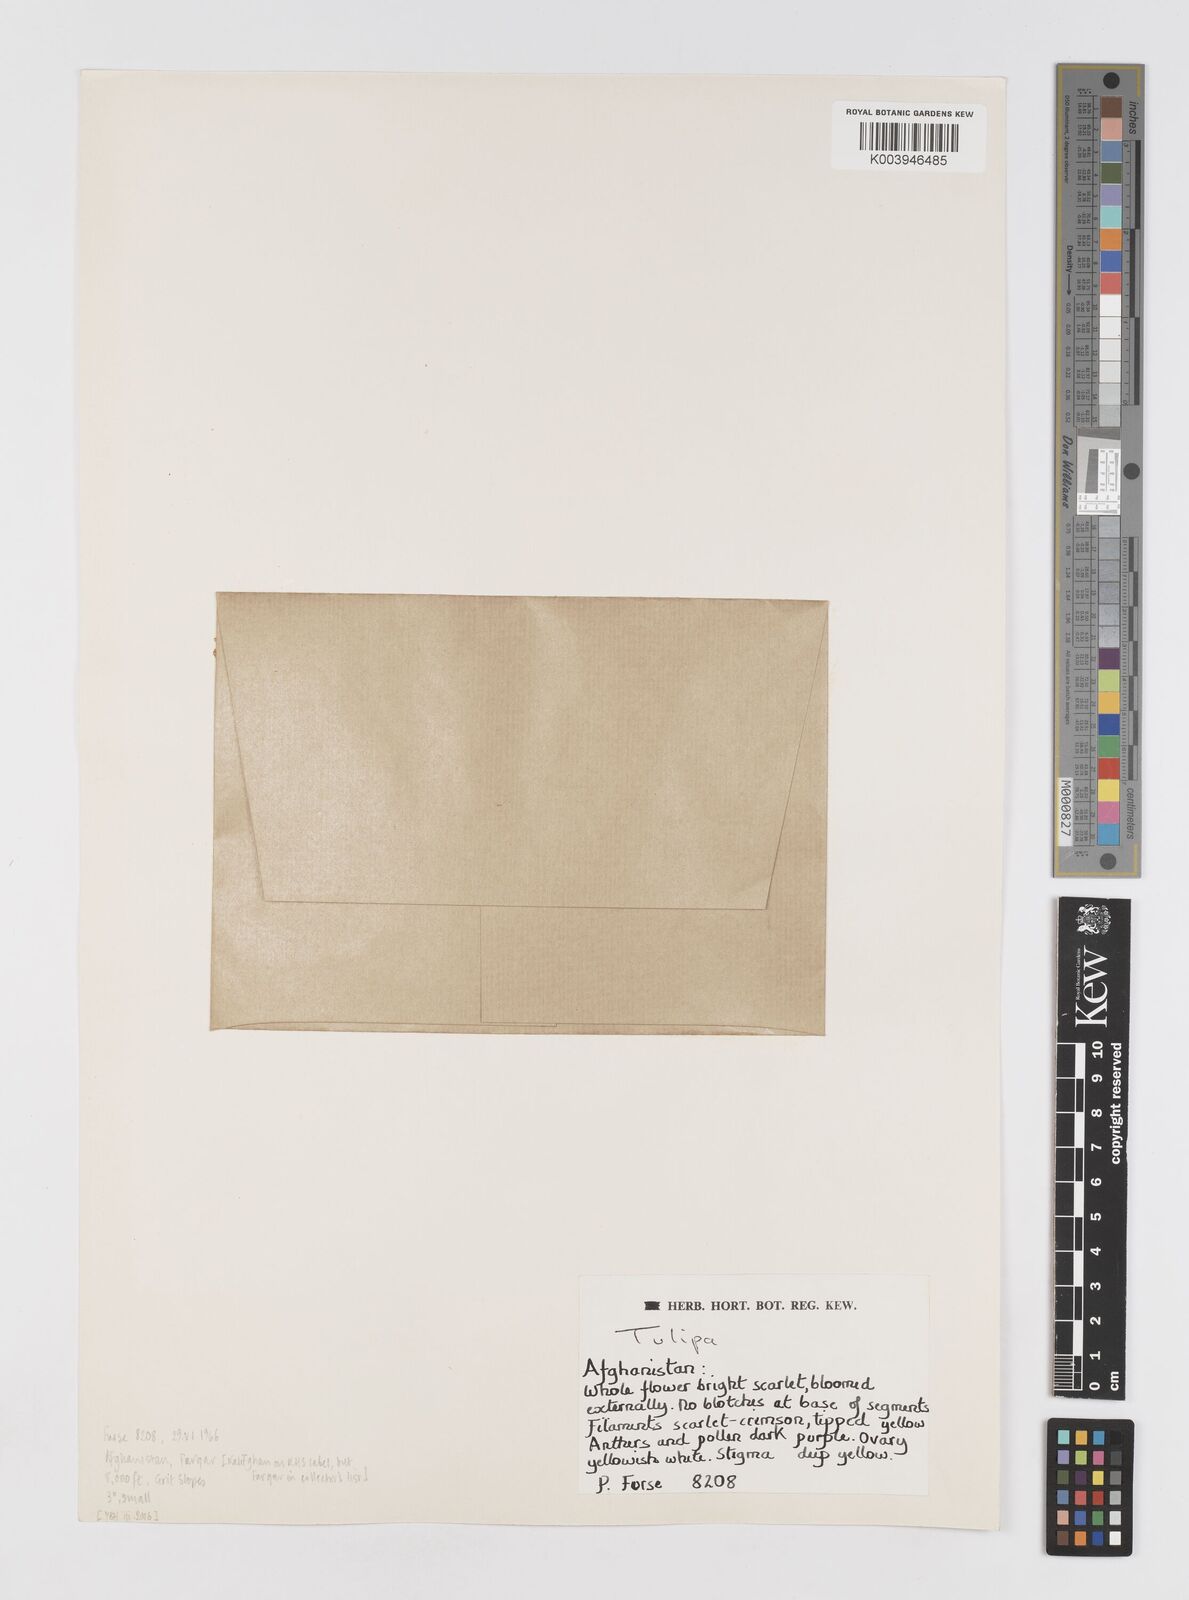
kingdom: Plantae
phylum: Tracheophyta
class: Liliopsida
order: Liliales
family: Liliaceae
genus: Tulipa
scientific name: Tulipa
